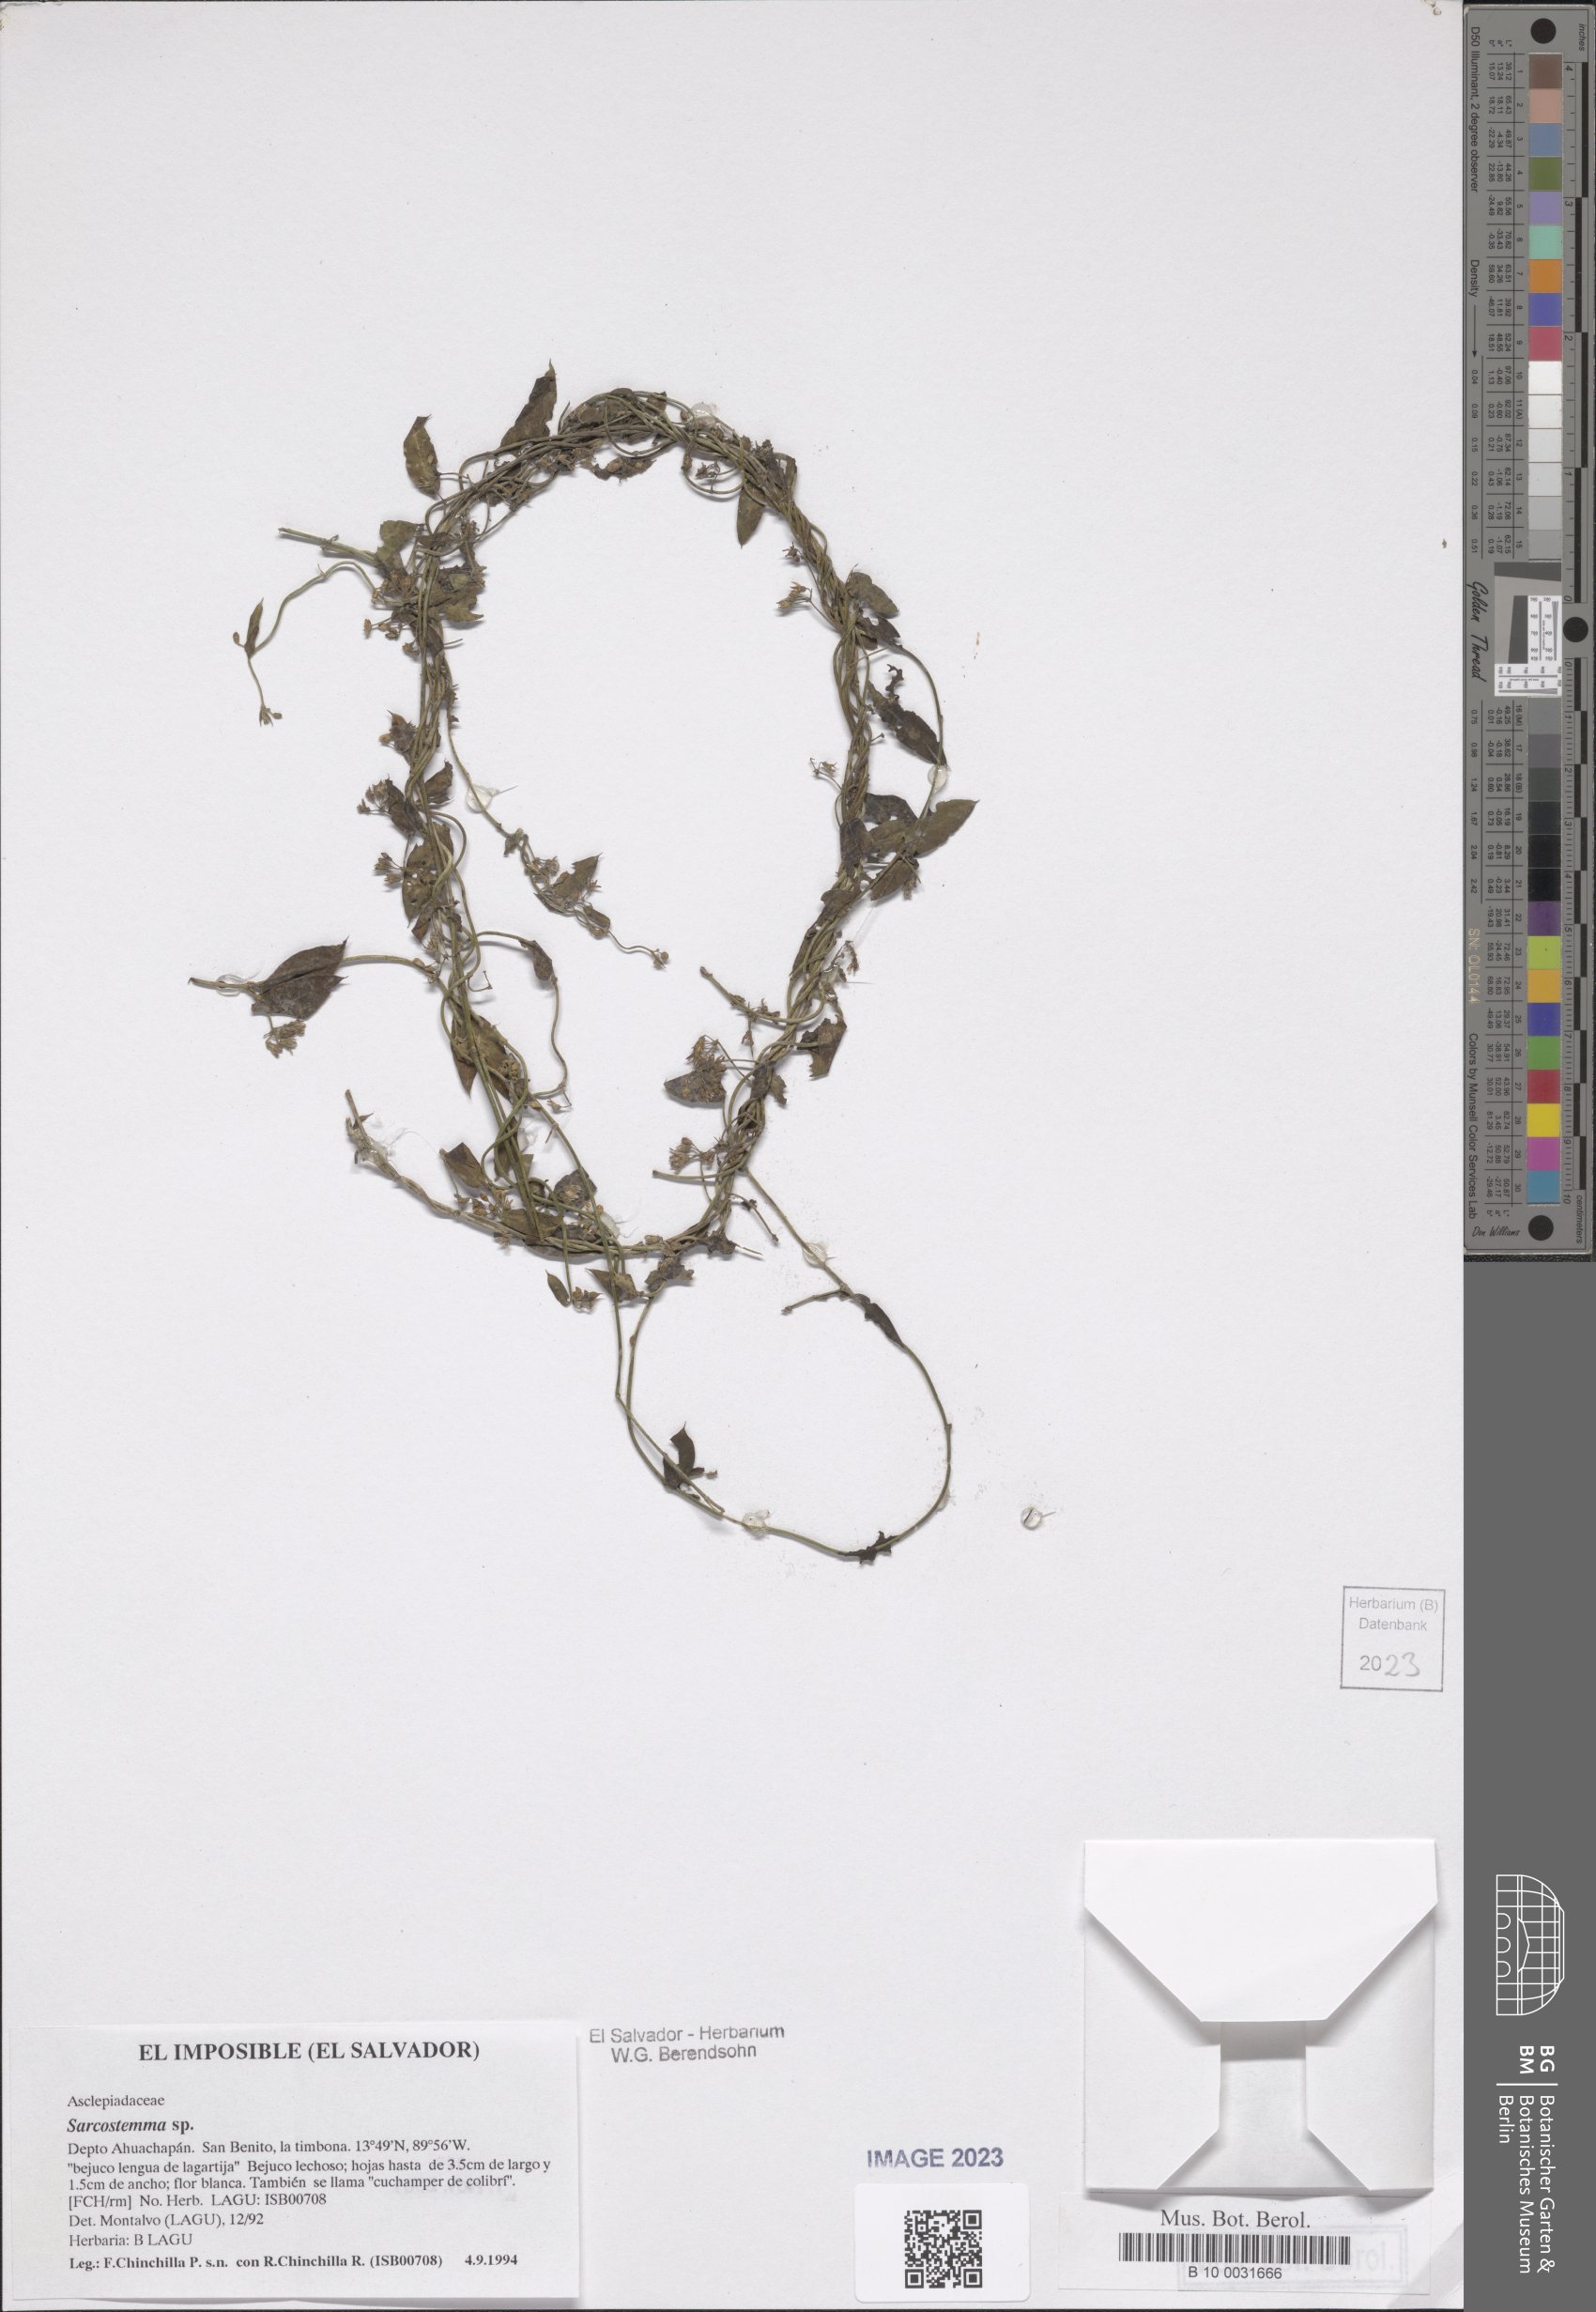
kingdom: Plantae
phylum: Tracheophyta
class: Magnoliopsida
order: Gentianales
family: Apocynaceae
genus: Cynanchum
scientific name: Cynanchum
